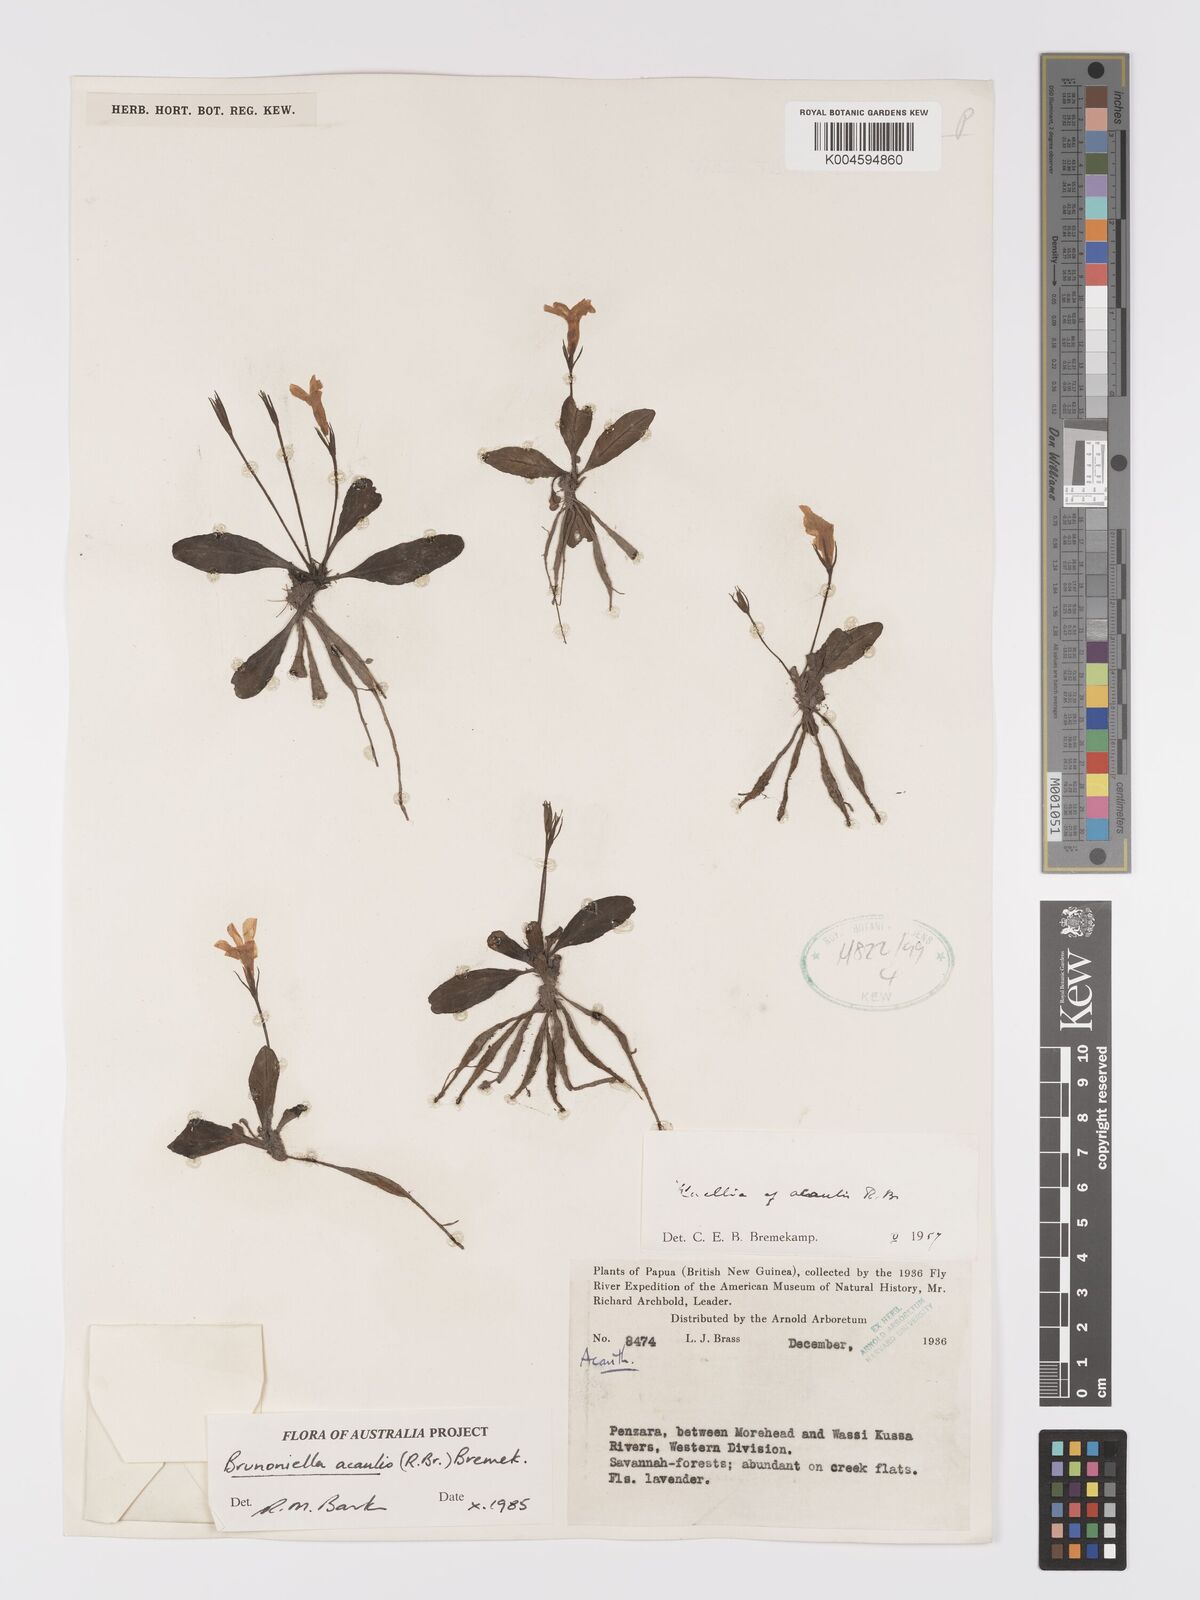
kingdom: Plantae
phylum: Tracheophyta
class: Magnoliopsida
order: Lamiales
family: Acanthaceae
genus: Brunoniella
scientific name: Brunoniella acaulis
